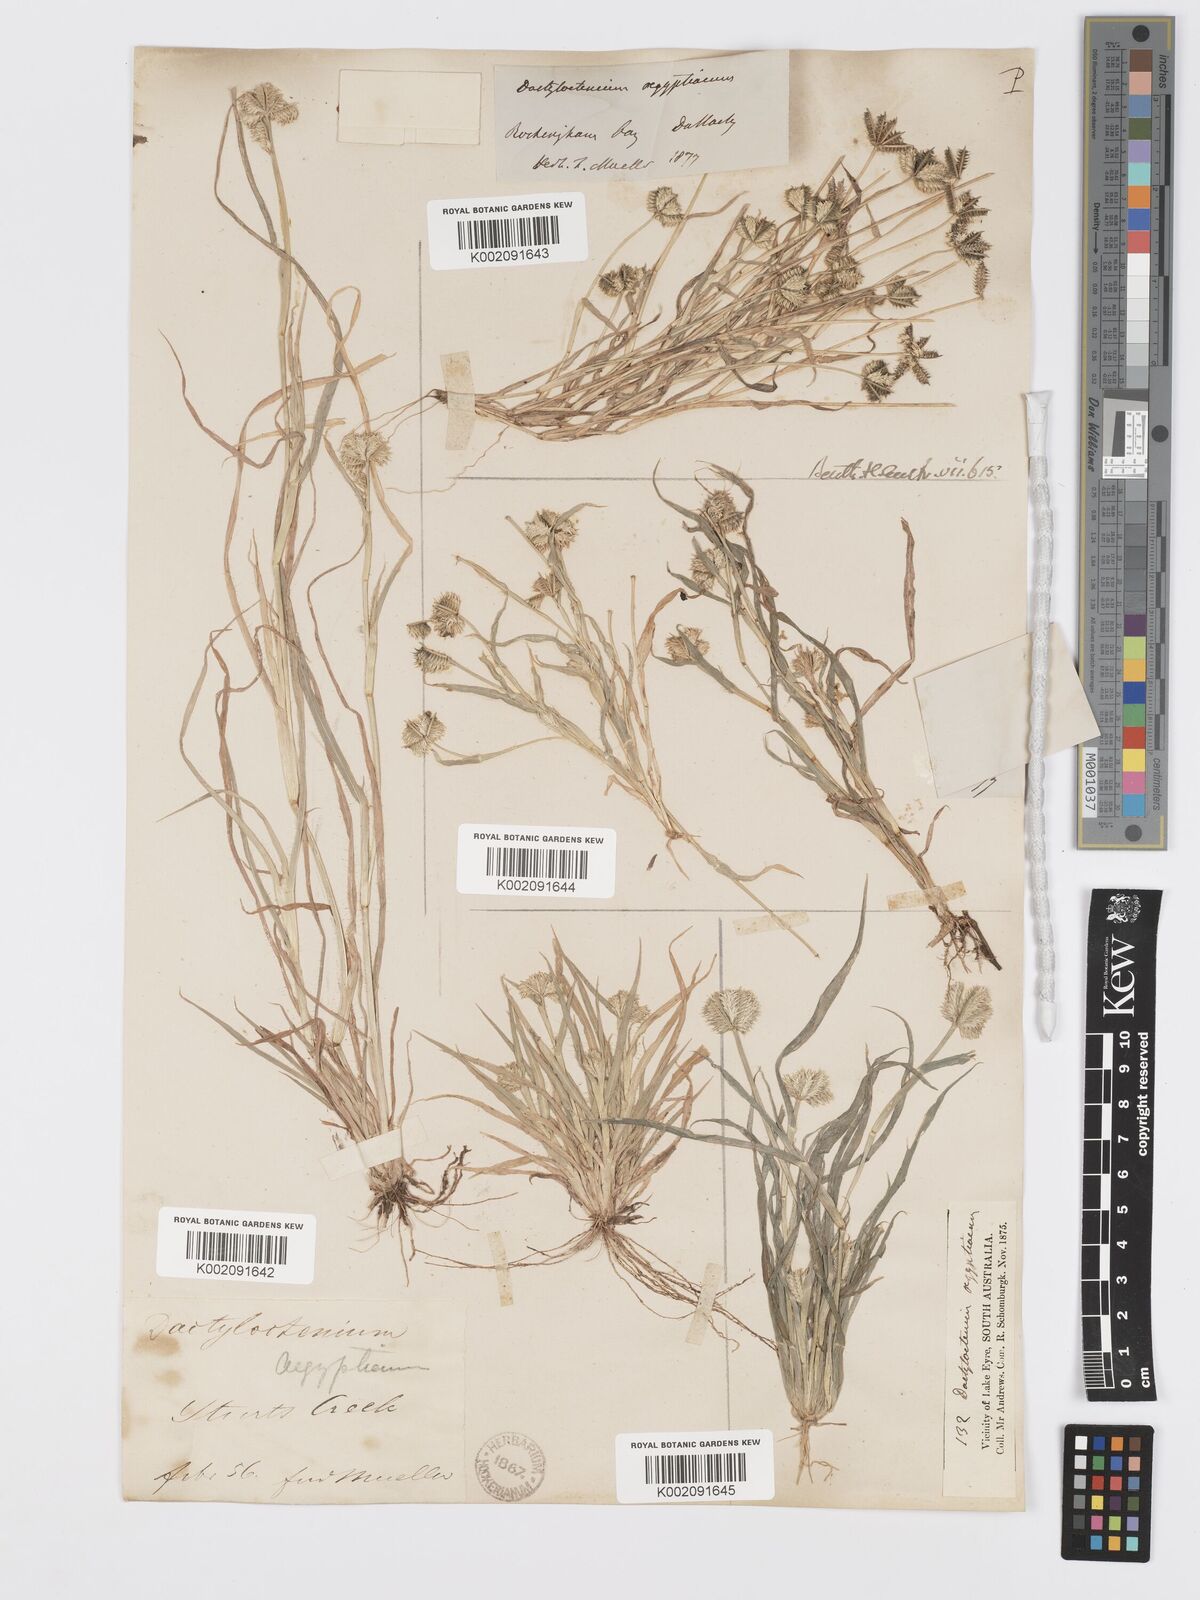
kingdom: Plantae
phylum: Tracheophyta
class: Liliopsida
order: Poales
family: Poaceae
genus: Dactyloctenium
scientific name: Dactyloctenium radulans
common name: Button-grass
